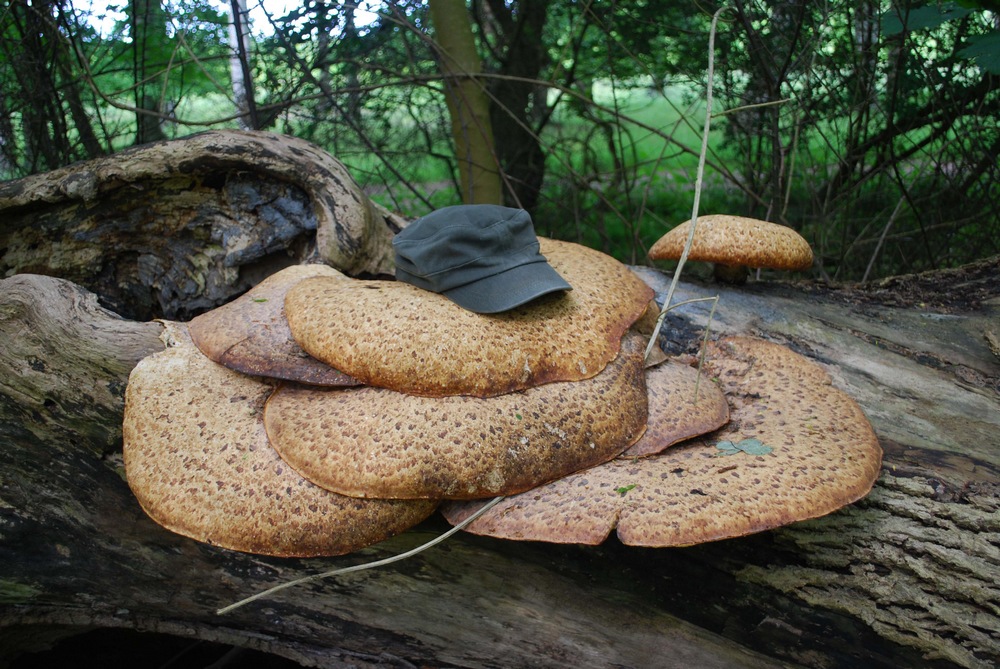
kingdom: Fungi
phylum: Basidiomycota
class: Agaricomycetes
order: Polyporales
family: Polyporaceae
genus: Cerioporus
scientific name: Cerioporus squamosus
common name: skællet stilkporesvamp
